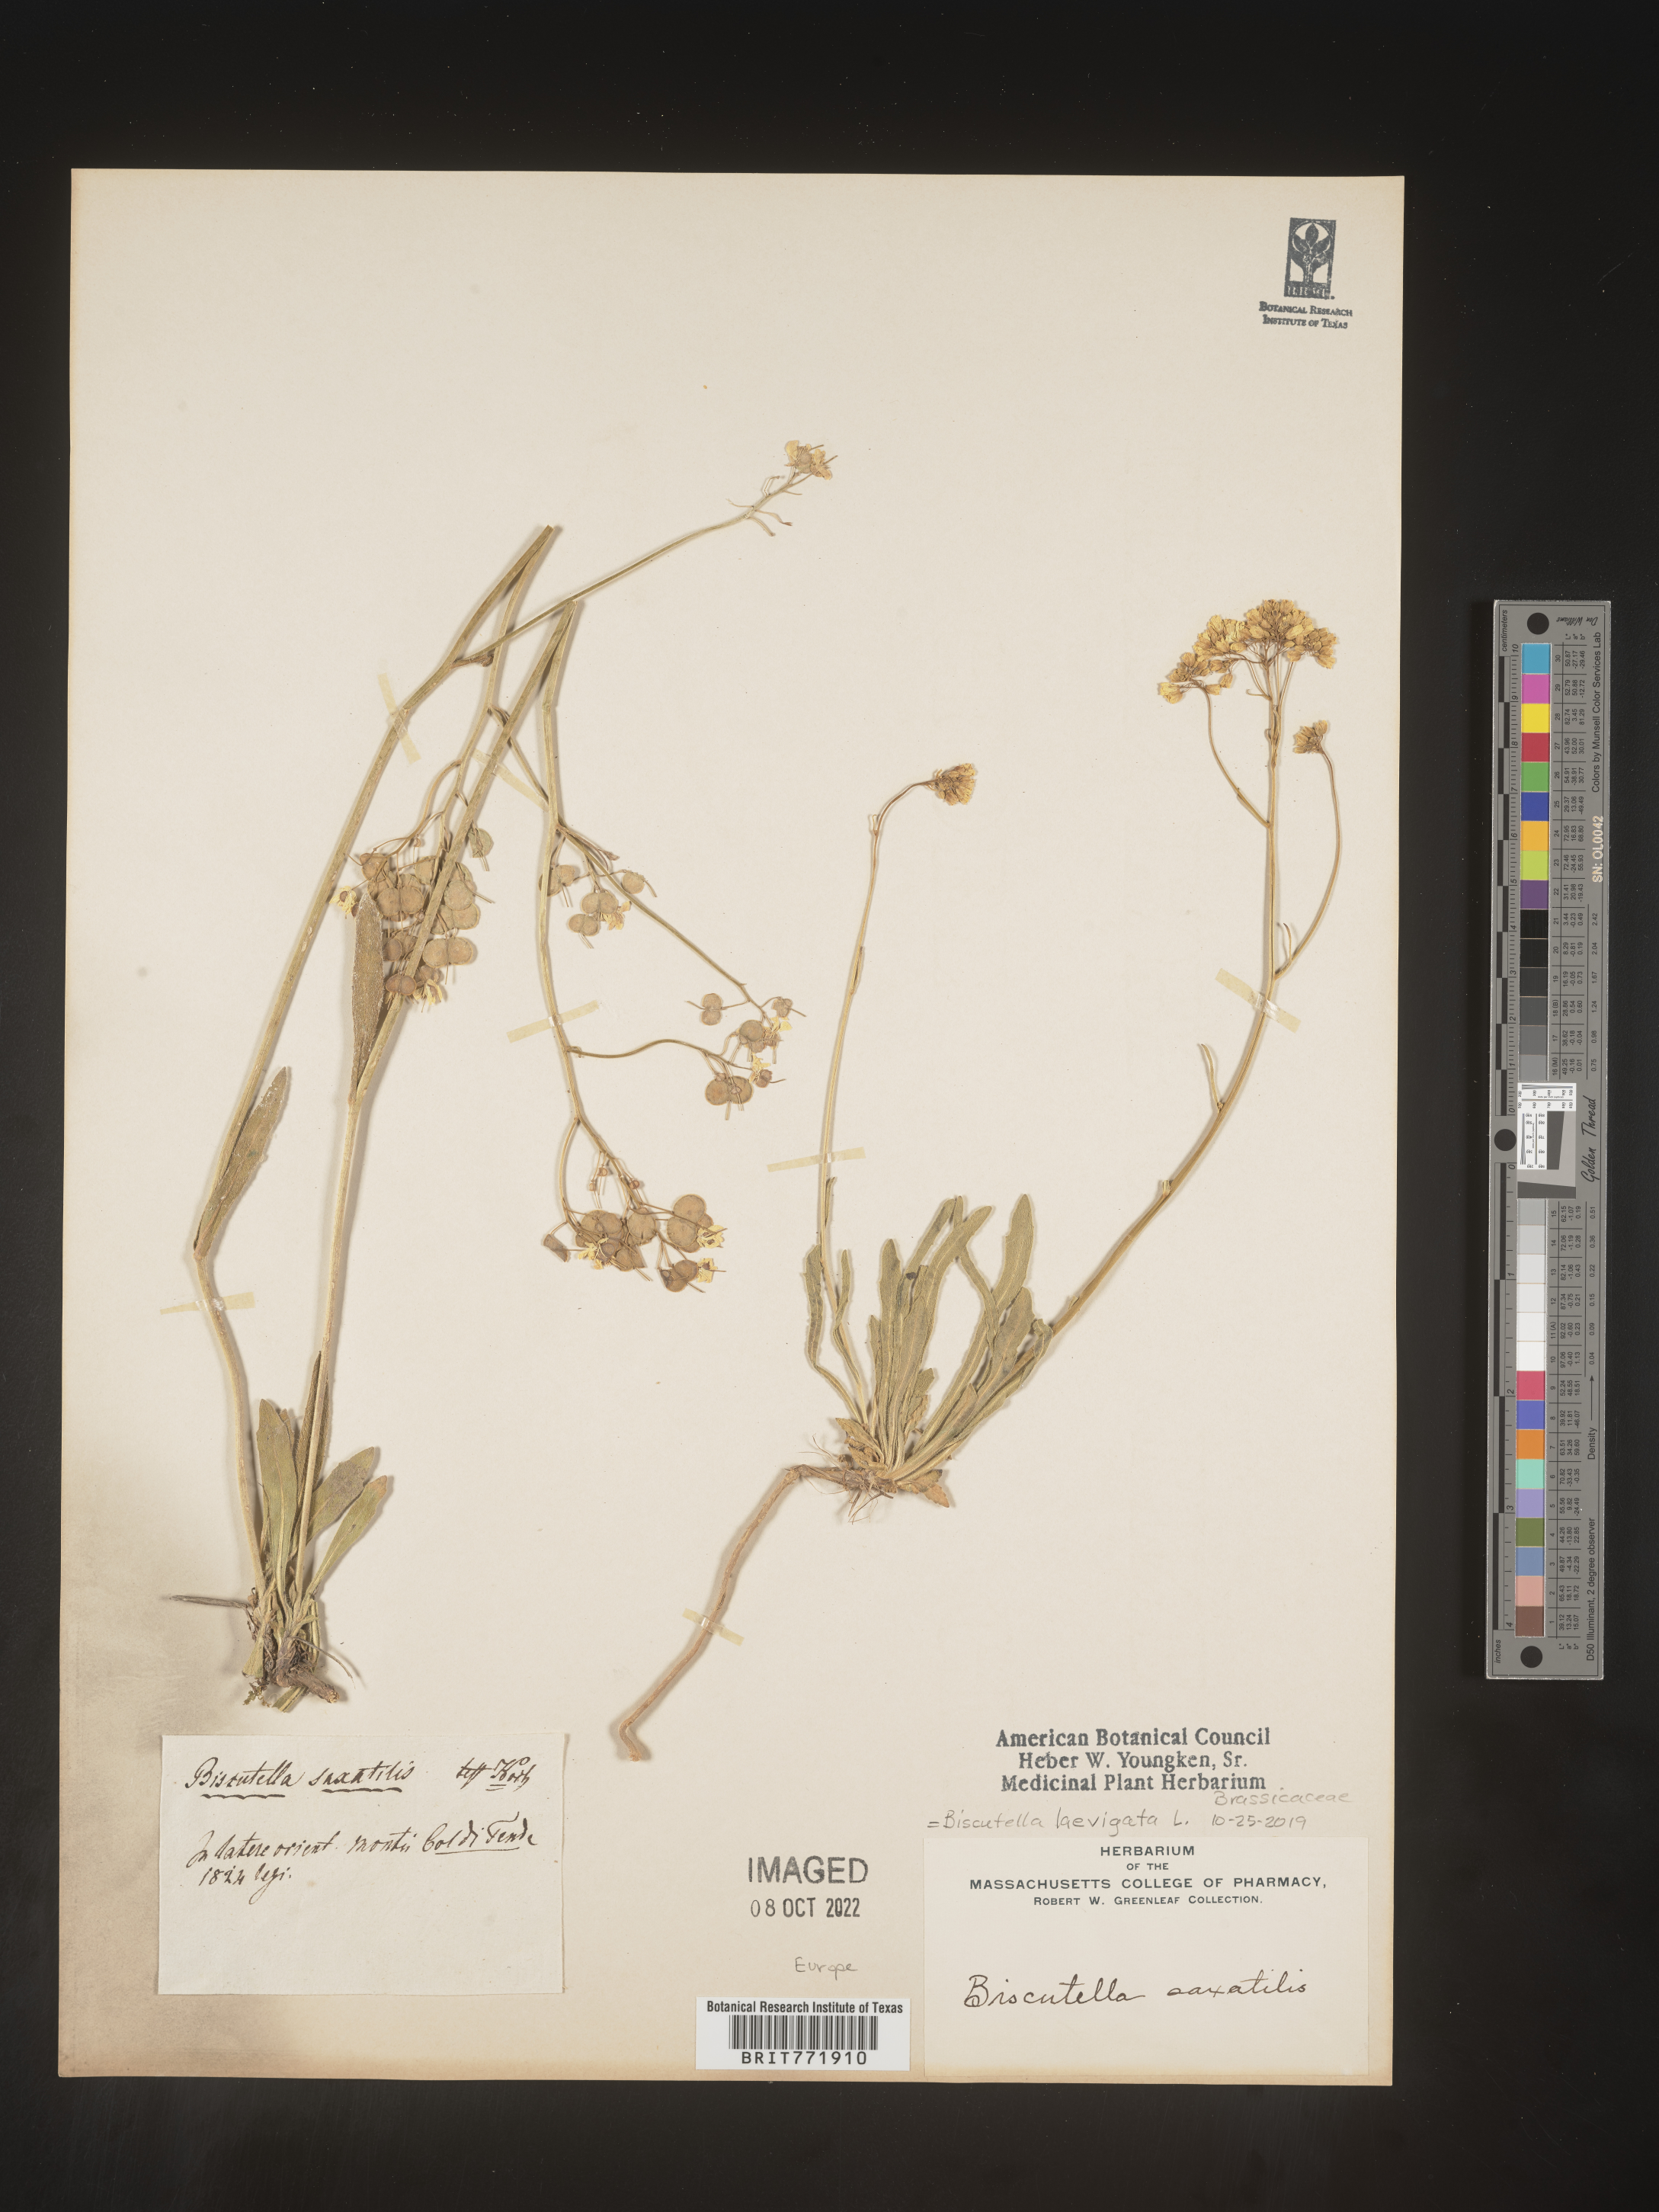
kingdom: Plantae
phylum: Tracheophyta
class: Magnoliopsida
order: Brassicales
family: Brassicaceae
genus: Biscutella
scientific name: Biscutella
